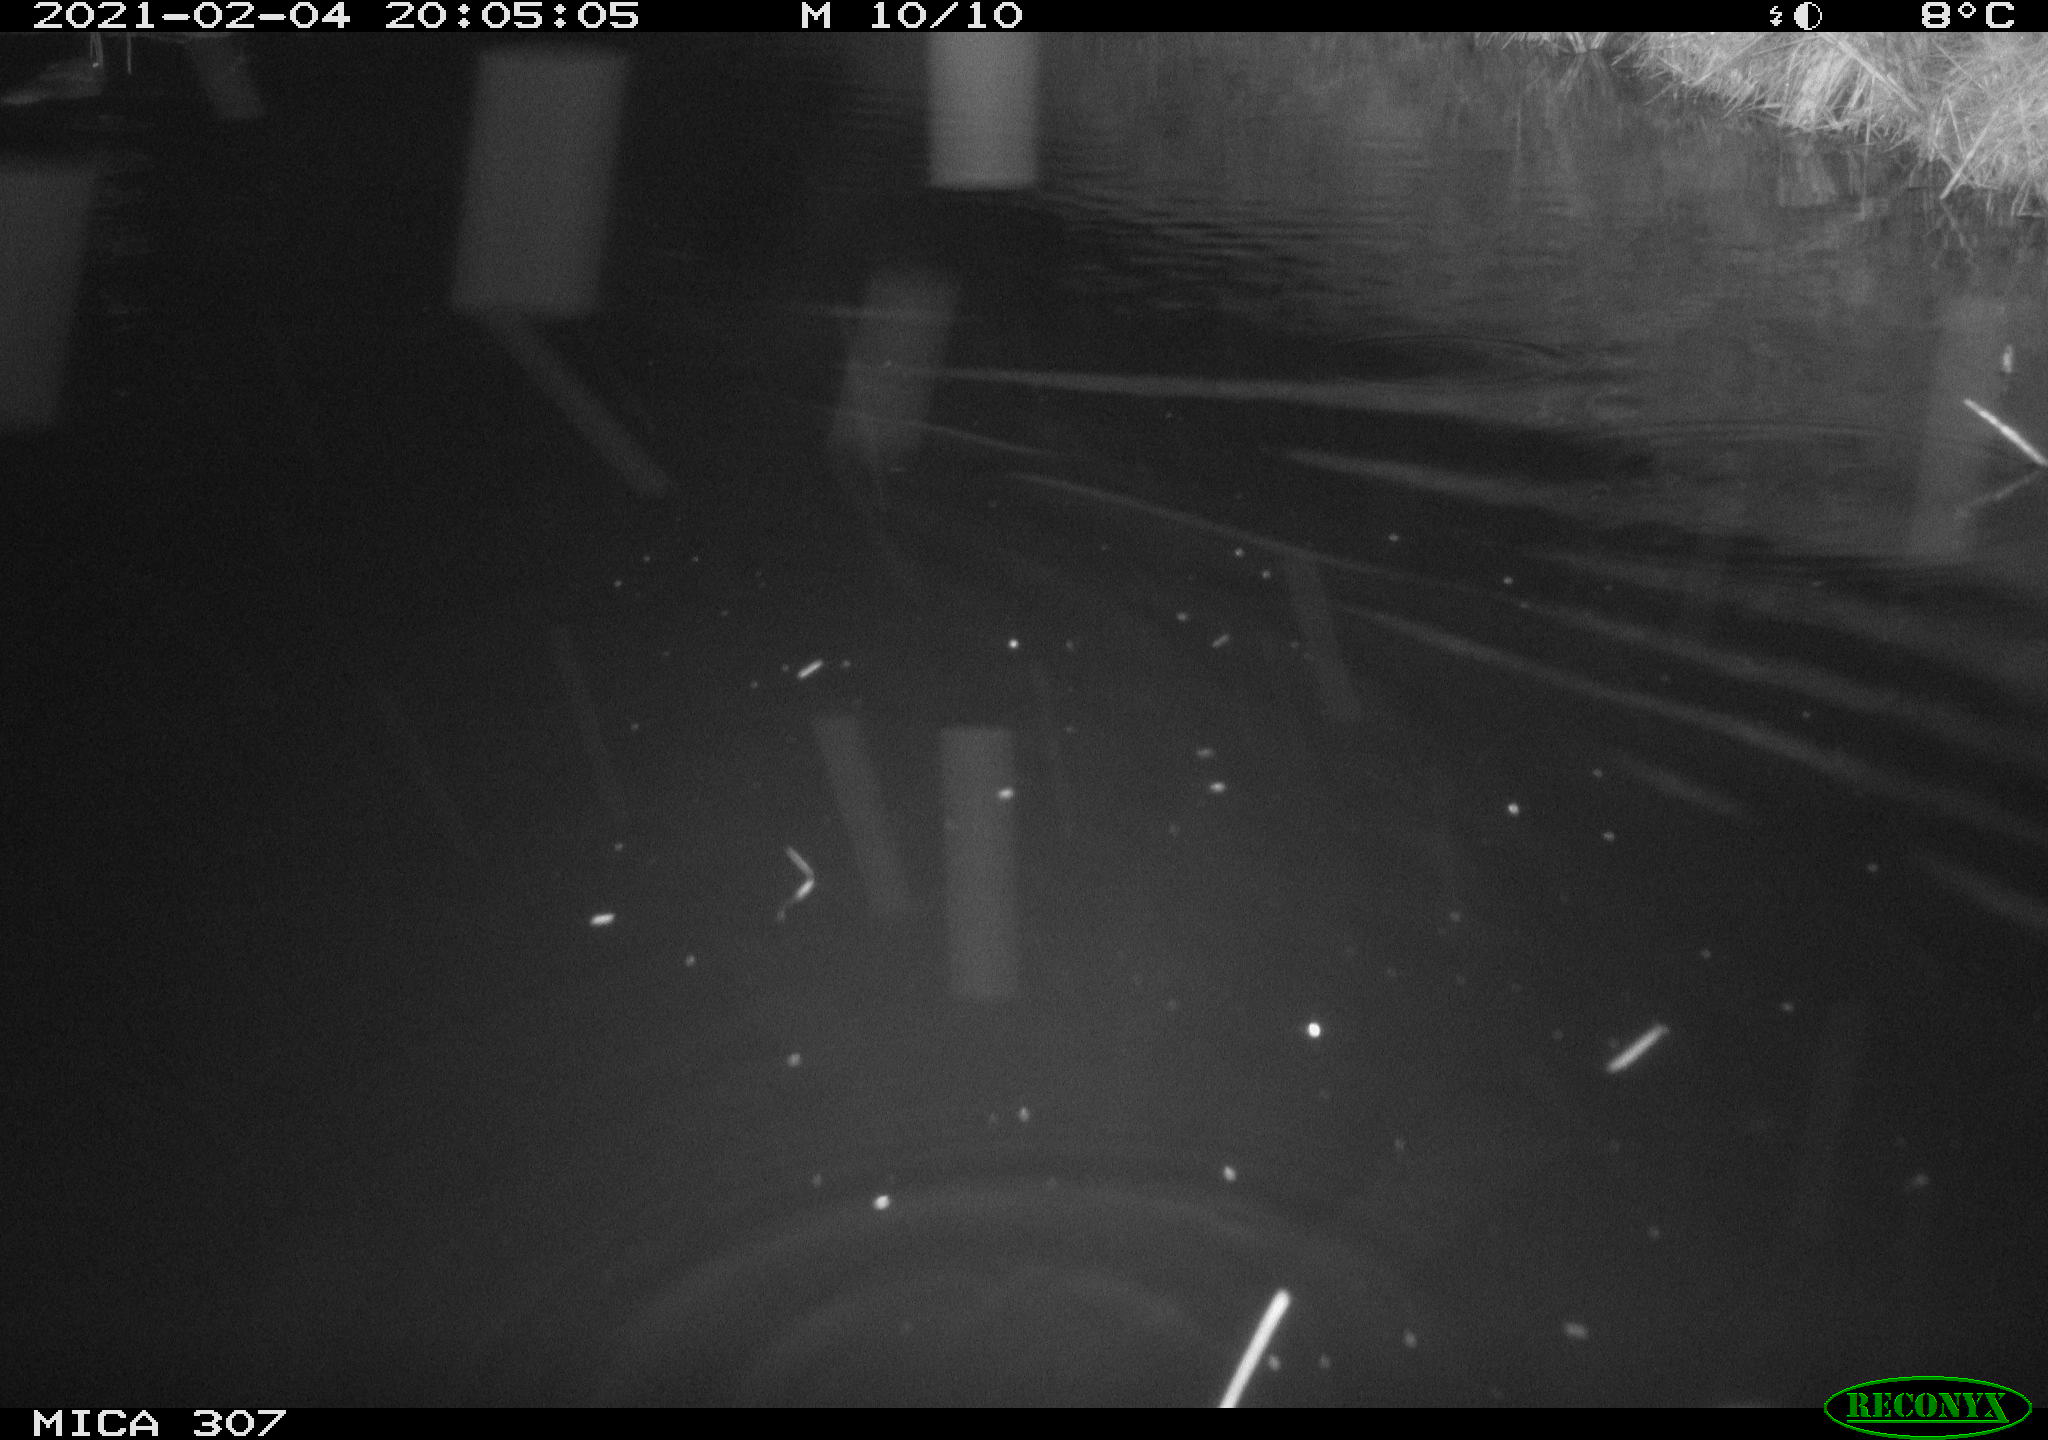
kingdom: Animalia
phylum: Chordata
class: Mammalia
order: Rodentia
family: Cricetidae
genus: Ondatra
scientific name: Ondatra zibethicus
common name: Muskrat
